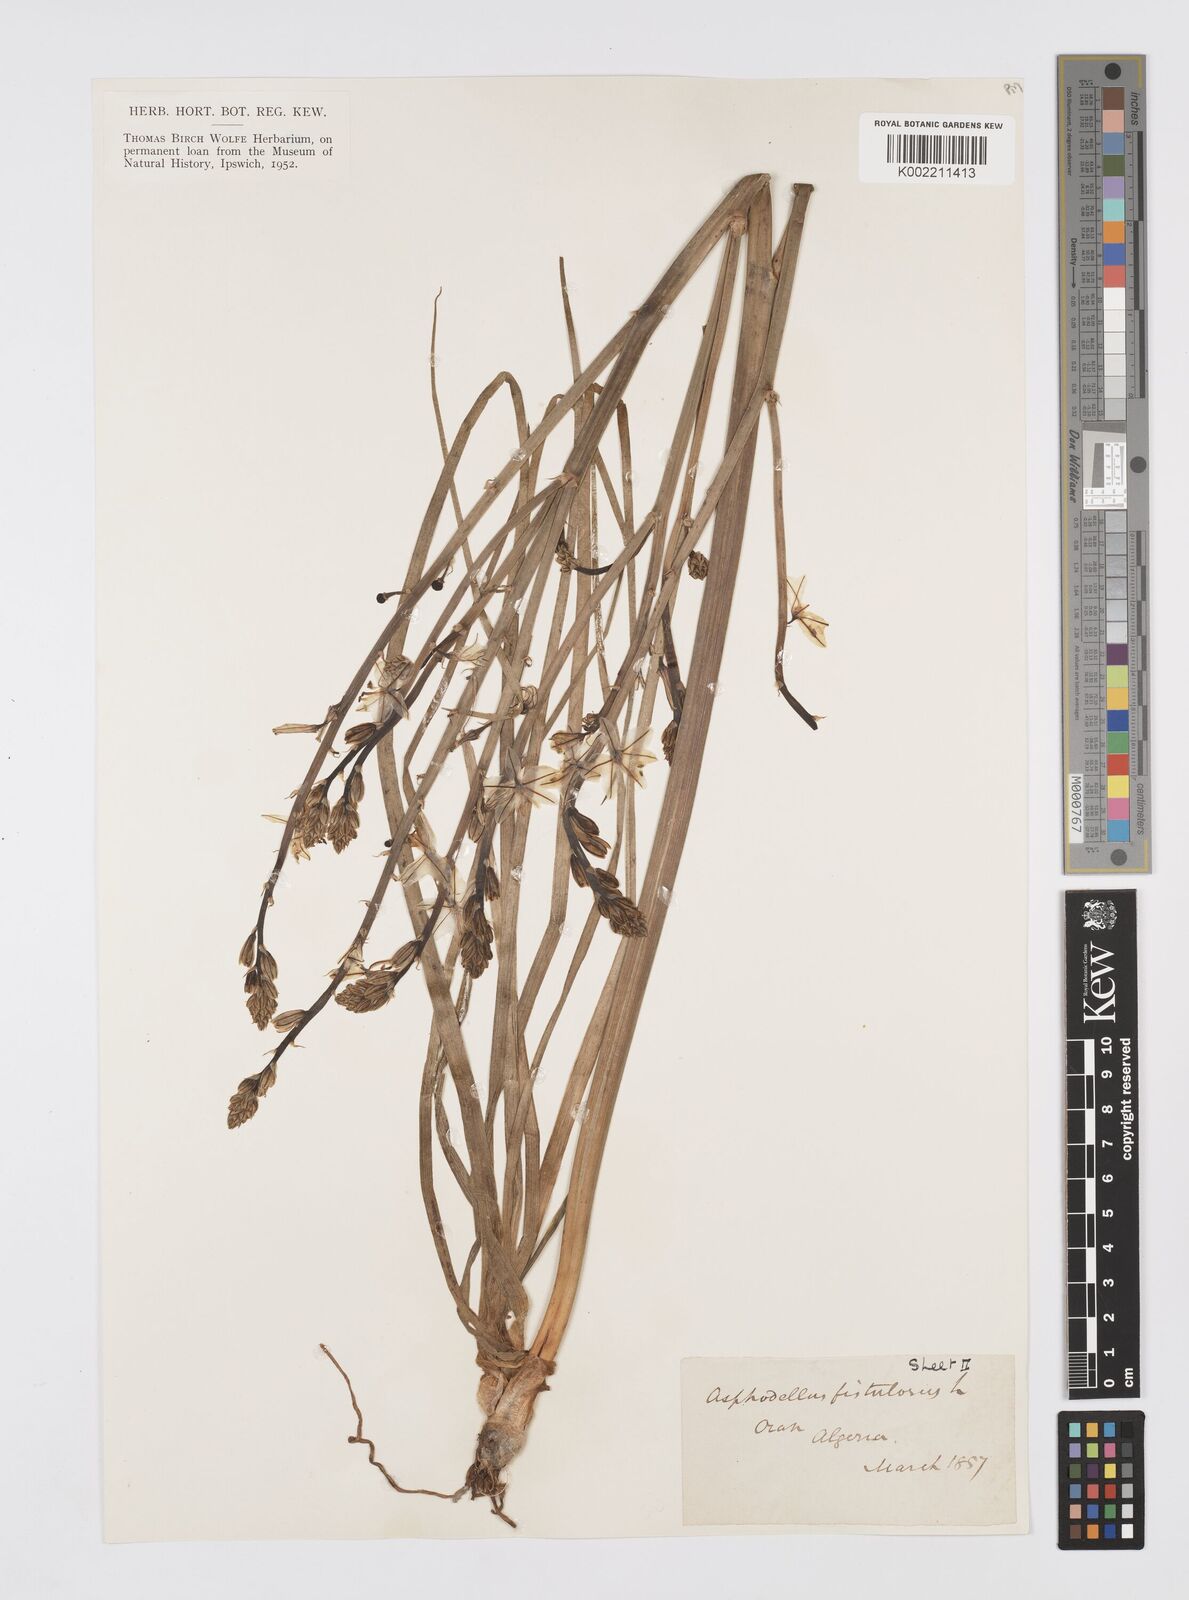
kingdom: Plantae
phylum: Tracheophyta
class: Liliopsida
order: Asparagales
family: Asphodelaceae
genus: Asphodelus
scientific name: Asphodelus fistulosus
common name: Onionweed
